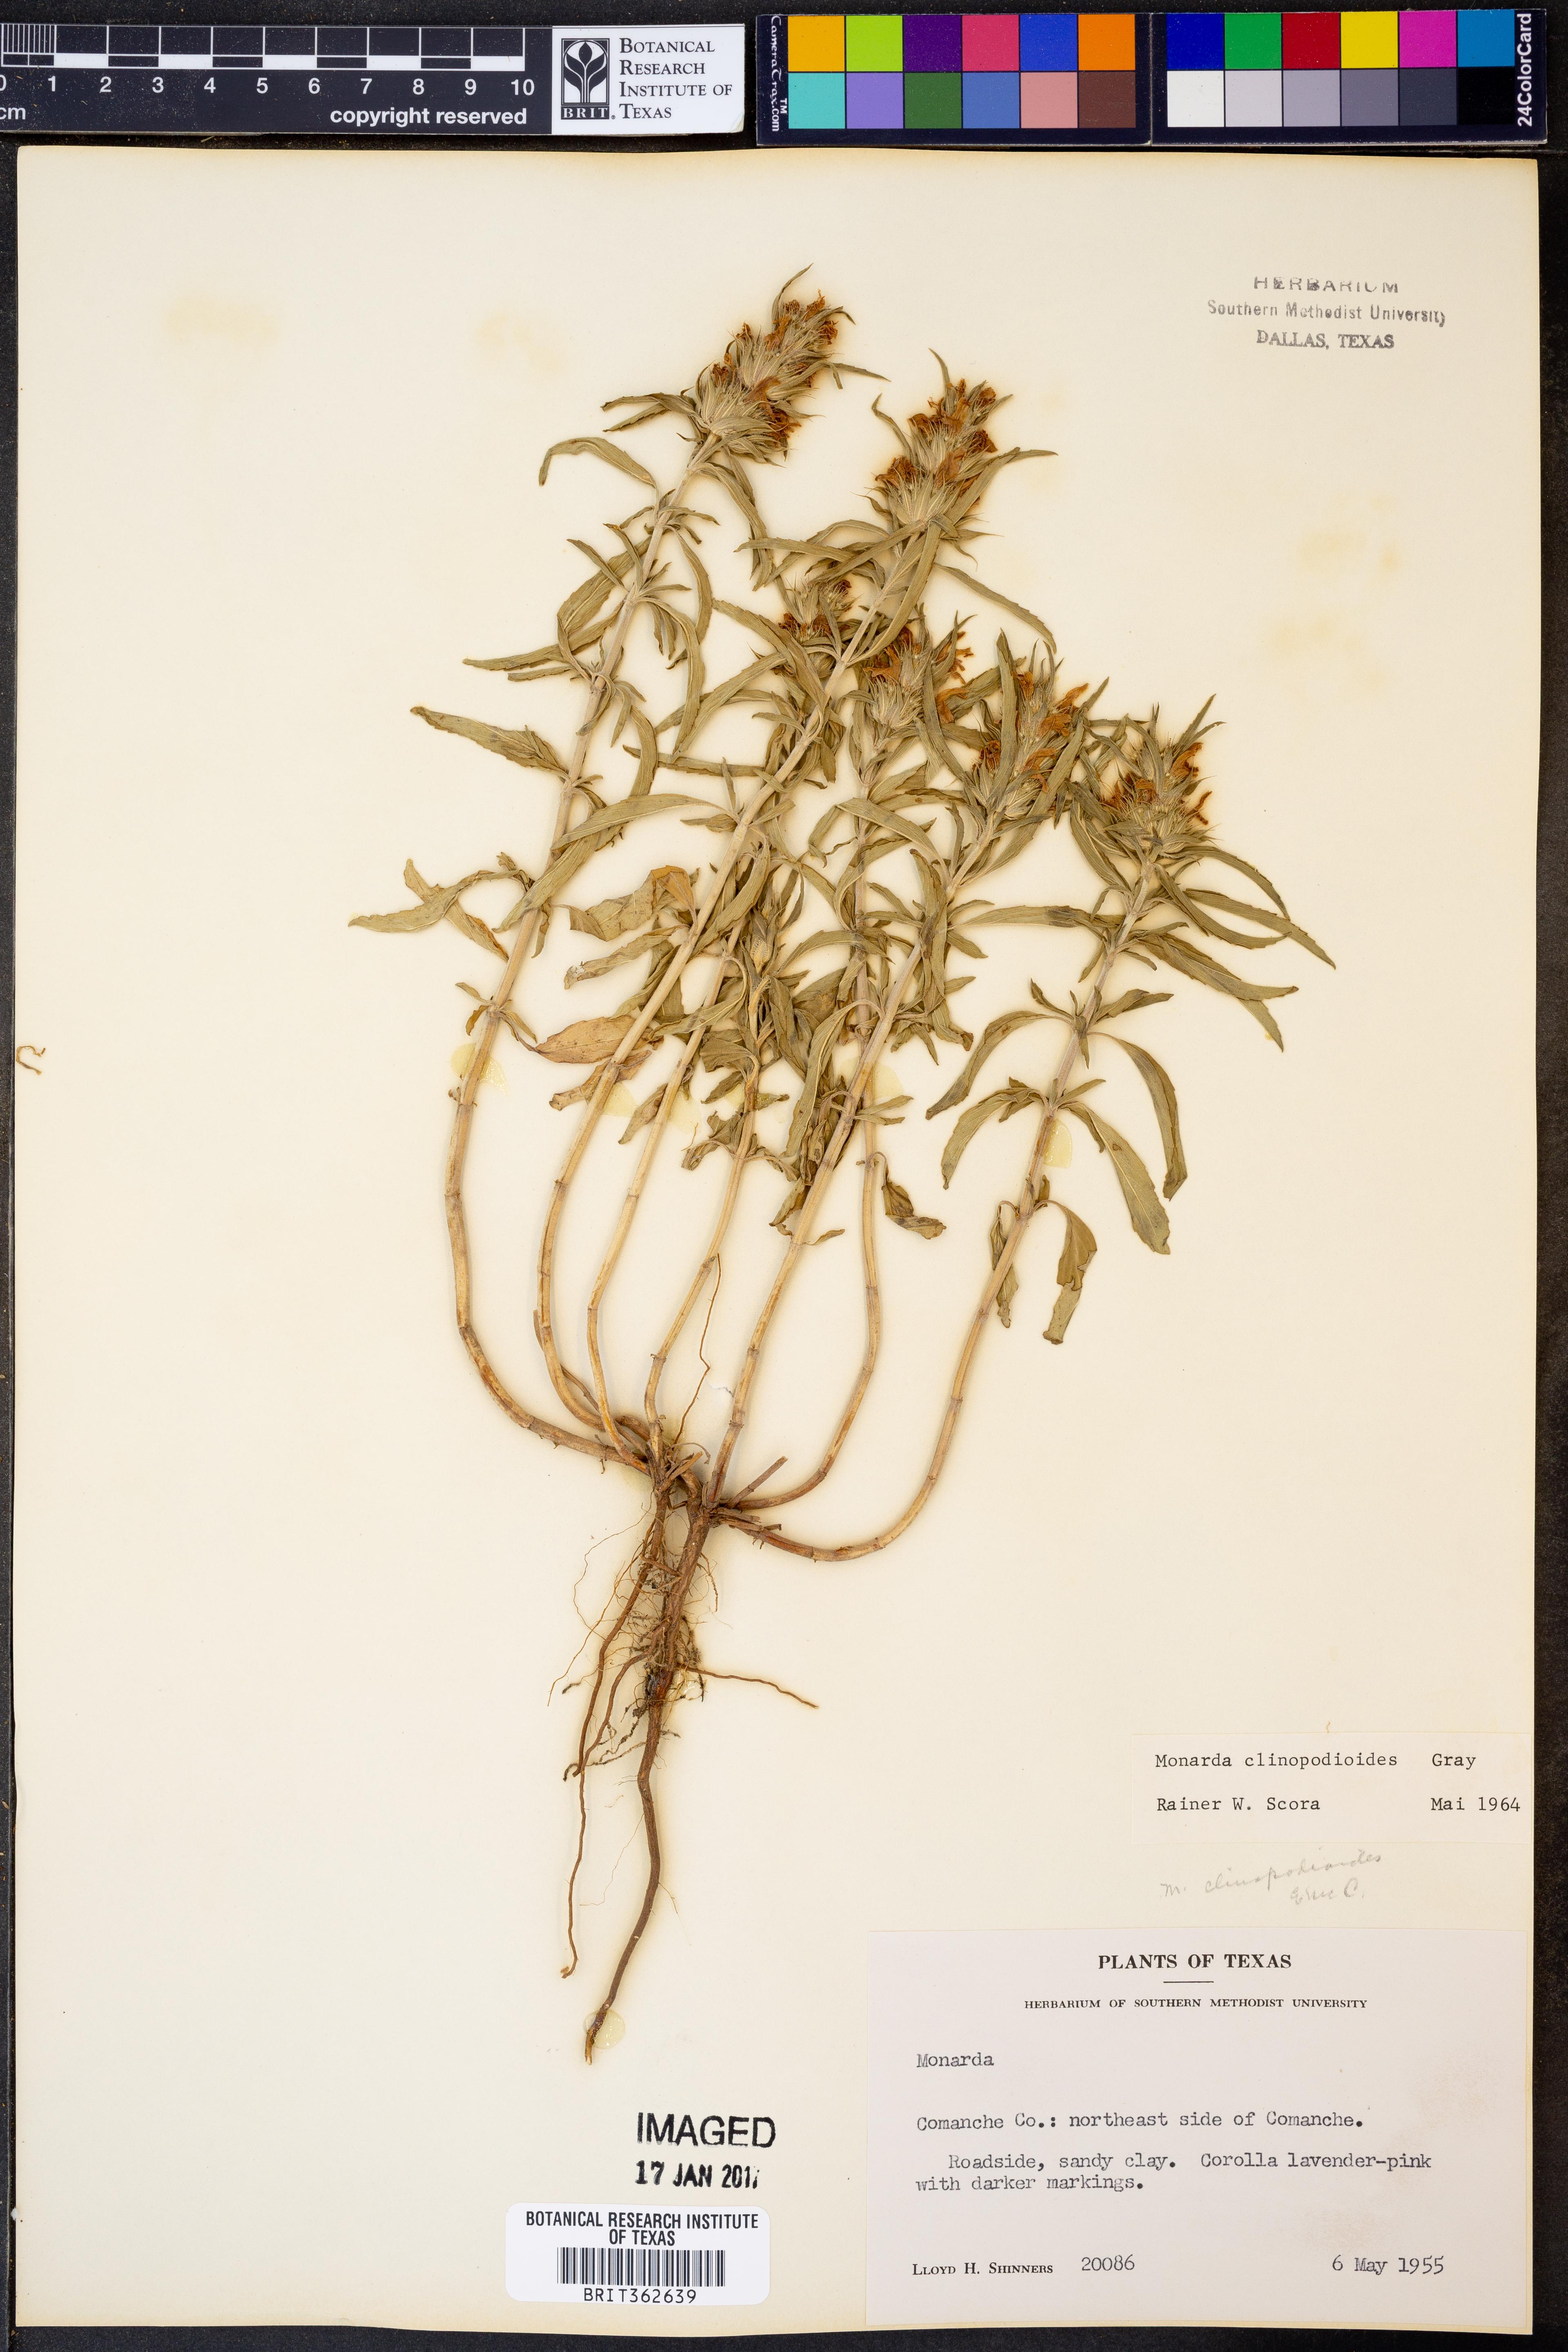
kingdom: Plantae
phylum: Tracheophyta
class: Magnoliopsida
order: Lamiales
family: Lamiaceae
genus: Monarda
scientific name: Monarda clinopodioides
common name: Basil beebalm
